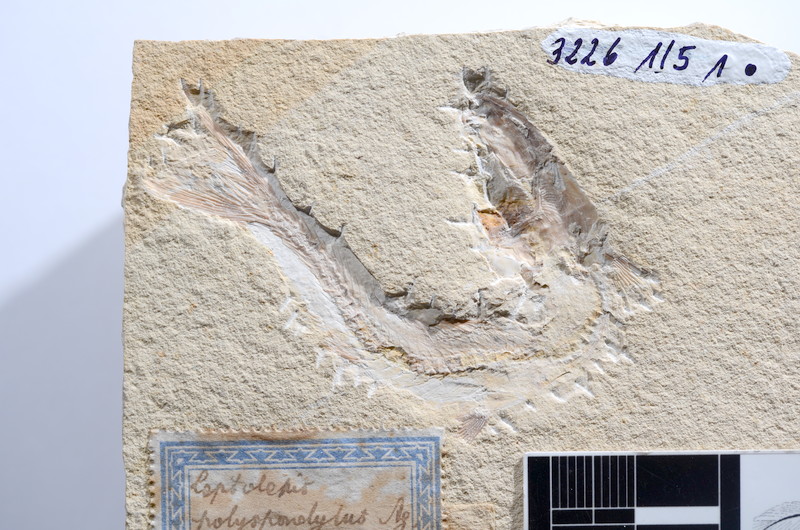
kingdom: Animalia
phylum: Chordata
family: Ascalaboidae
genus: Tharsis
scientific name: Tharsis dubius
